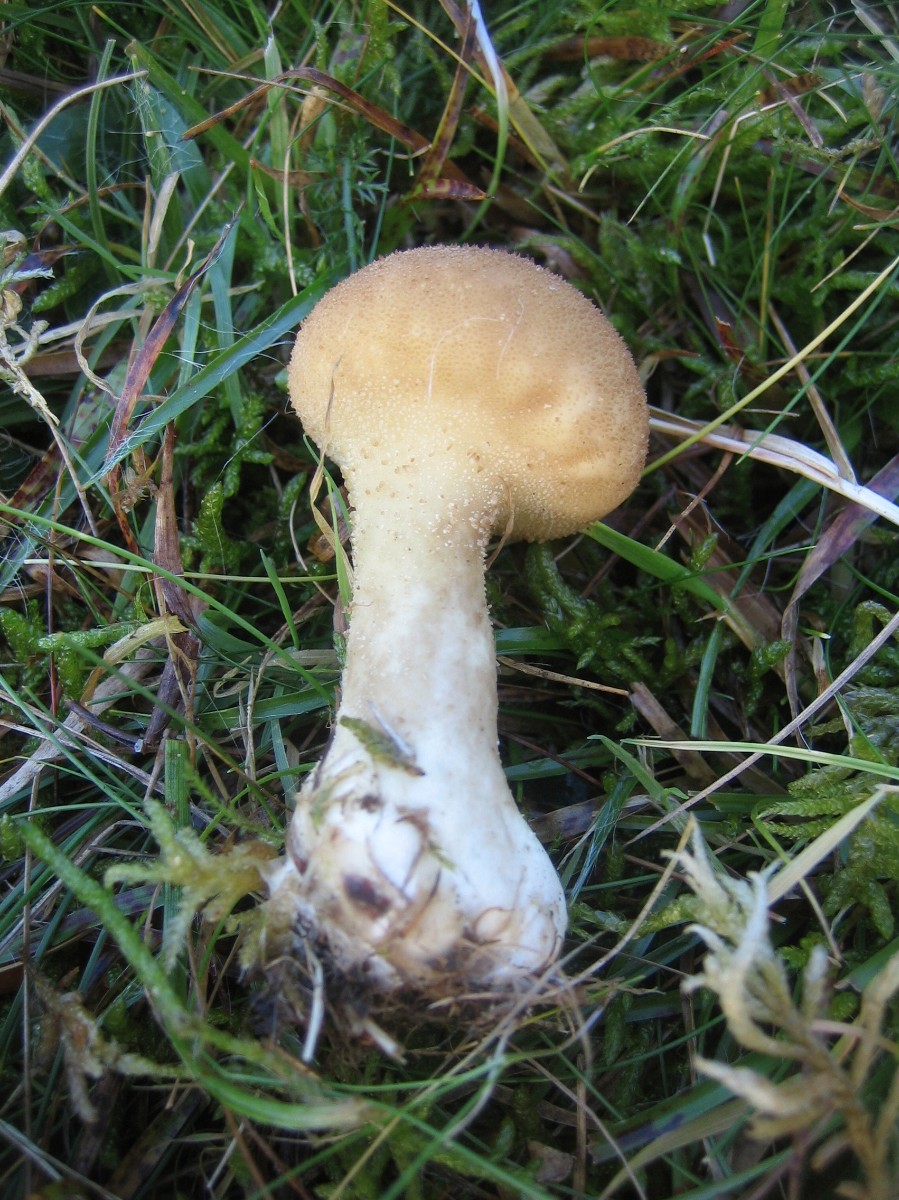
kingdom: Fungi
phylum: Basidiomycota
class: Agaricomycetes
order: Agaricales
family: Agaricaceae
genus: Lycoperdon
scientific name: Lycoperdon
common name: støvbold
